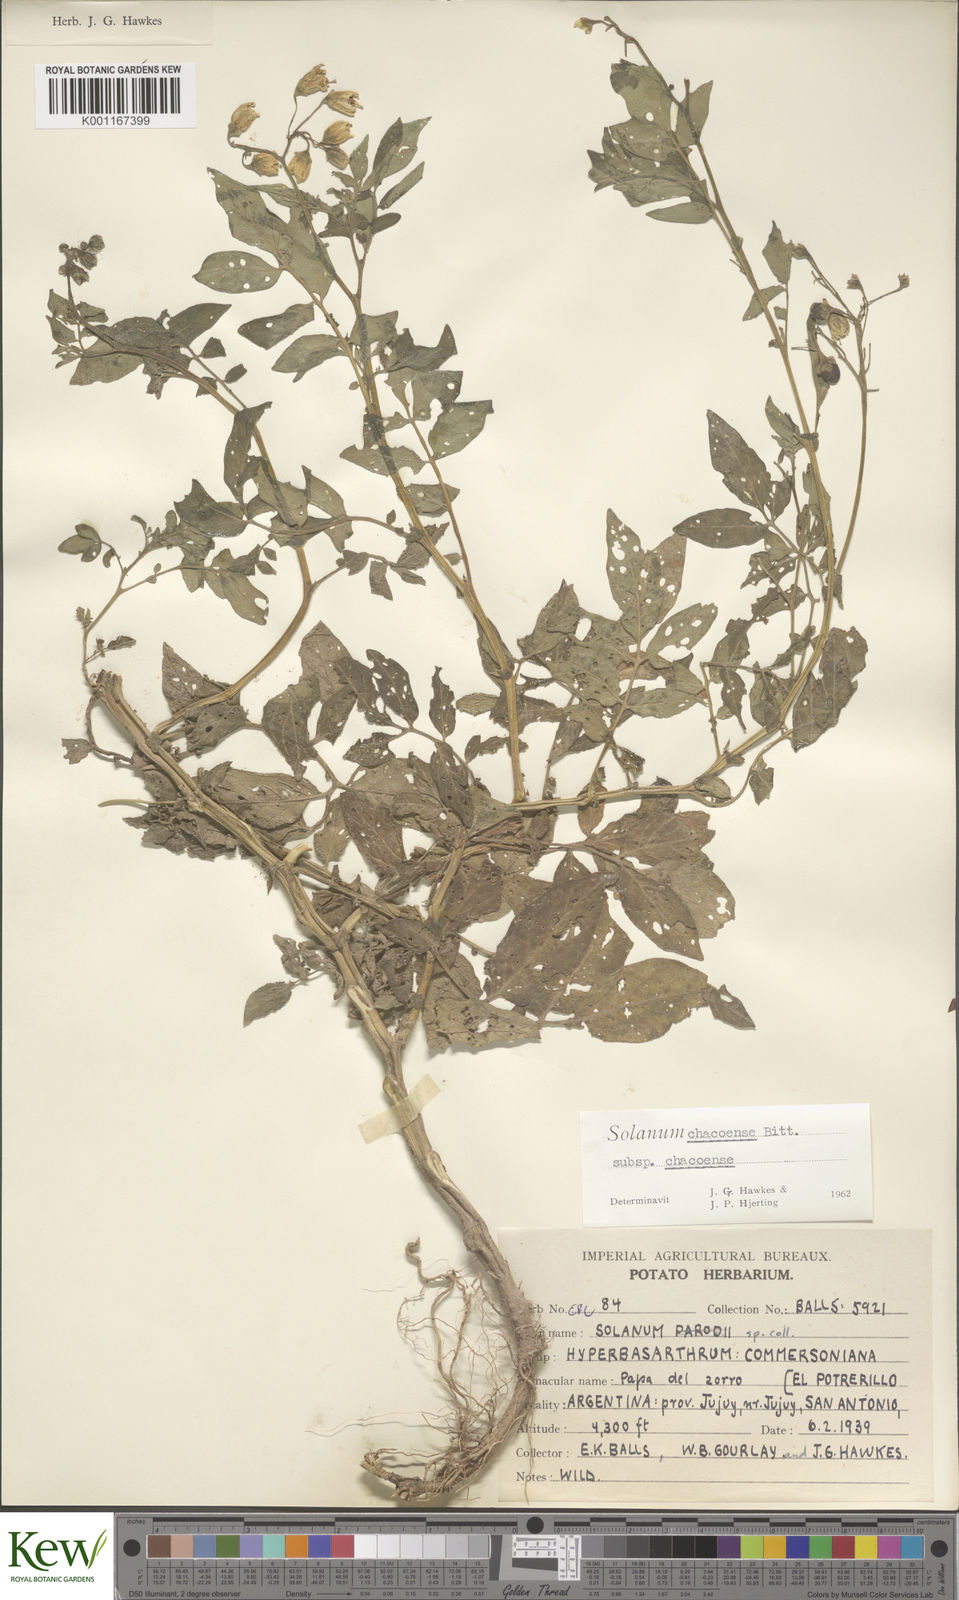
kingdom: Plantae
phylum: Tracheophyta
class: Magnoliopsida
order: Solanales
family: Solanaceae
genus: Solanum
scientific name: Solanum chacoense
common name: Chaco potato
